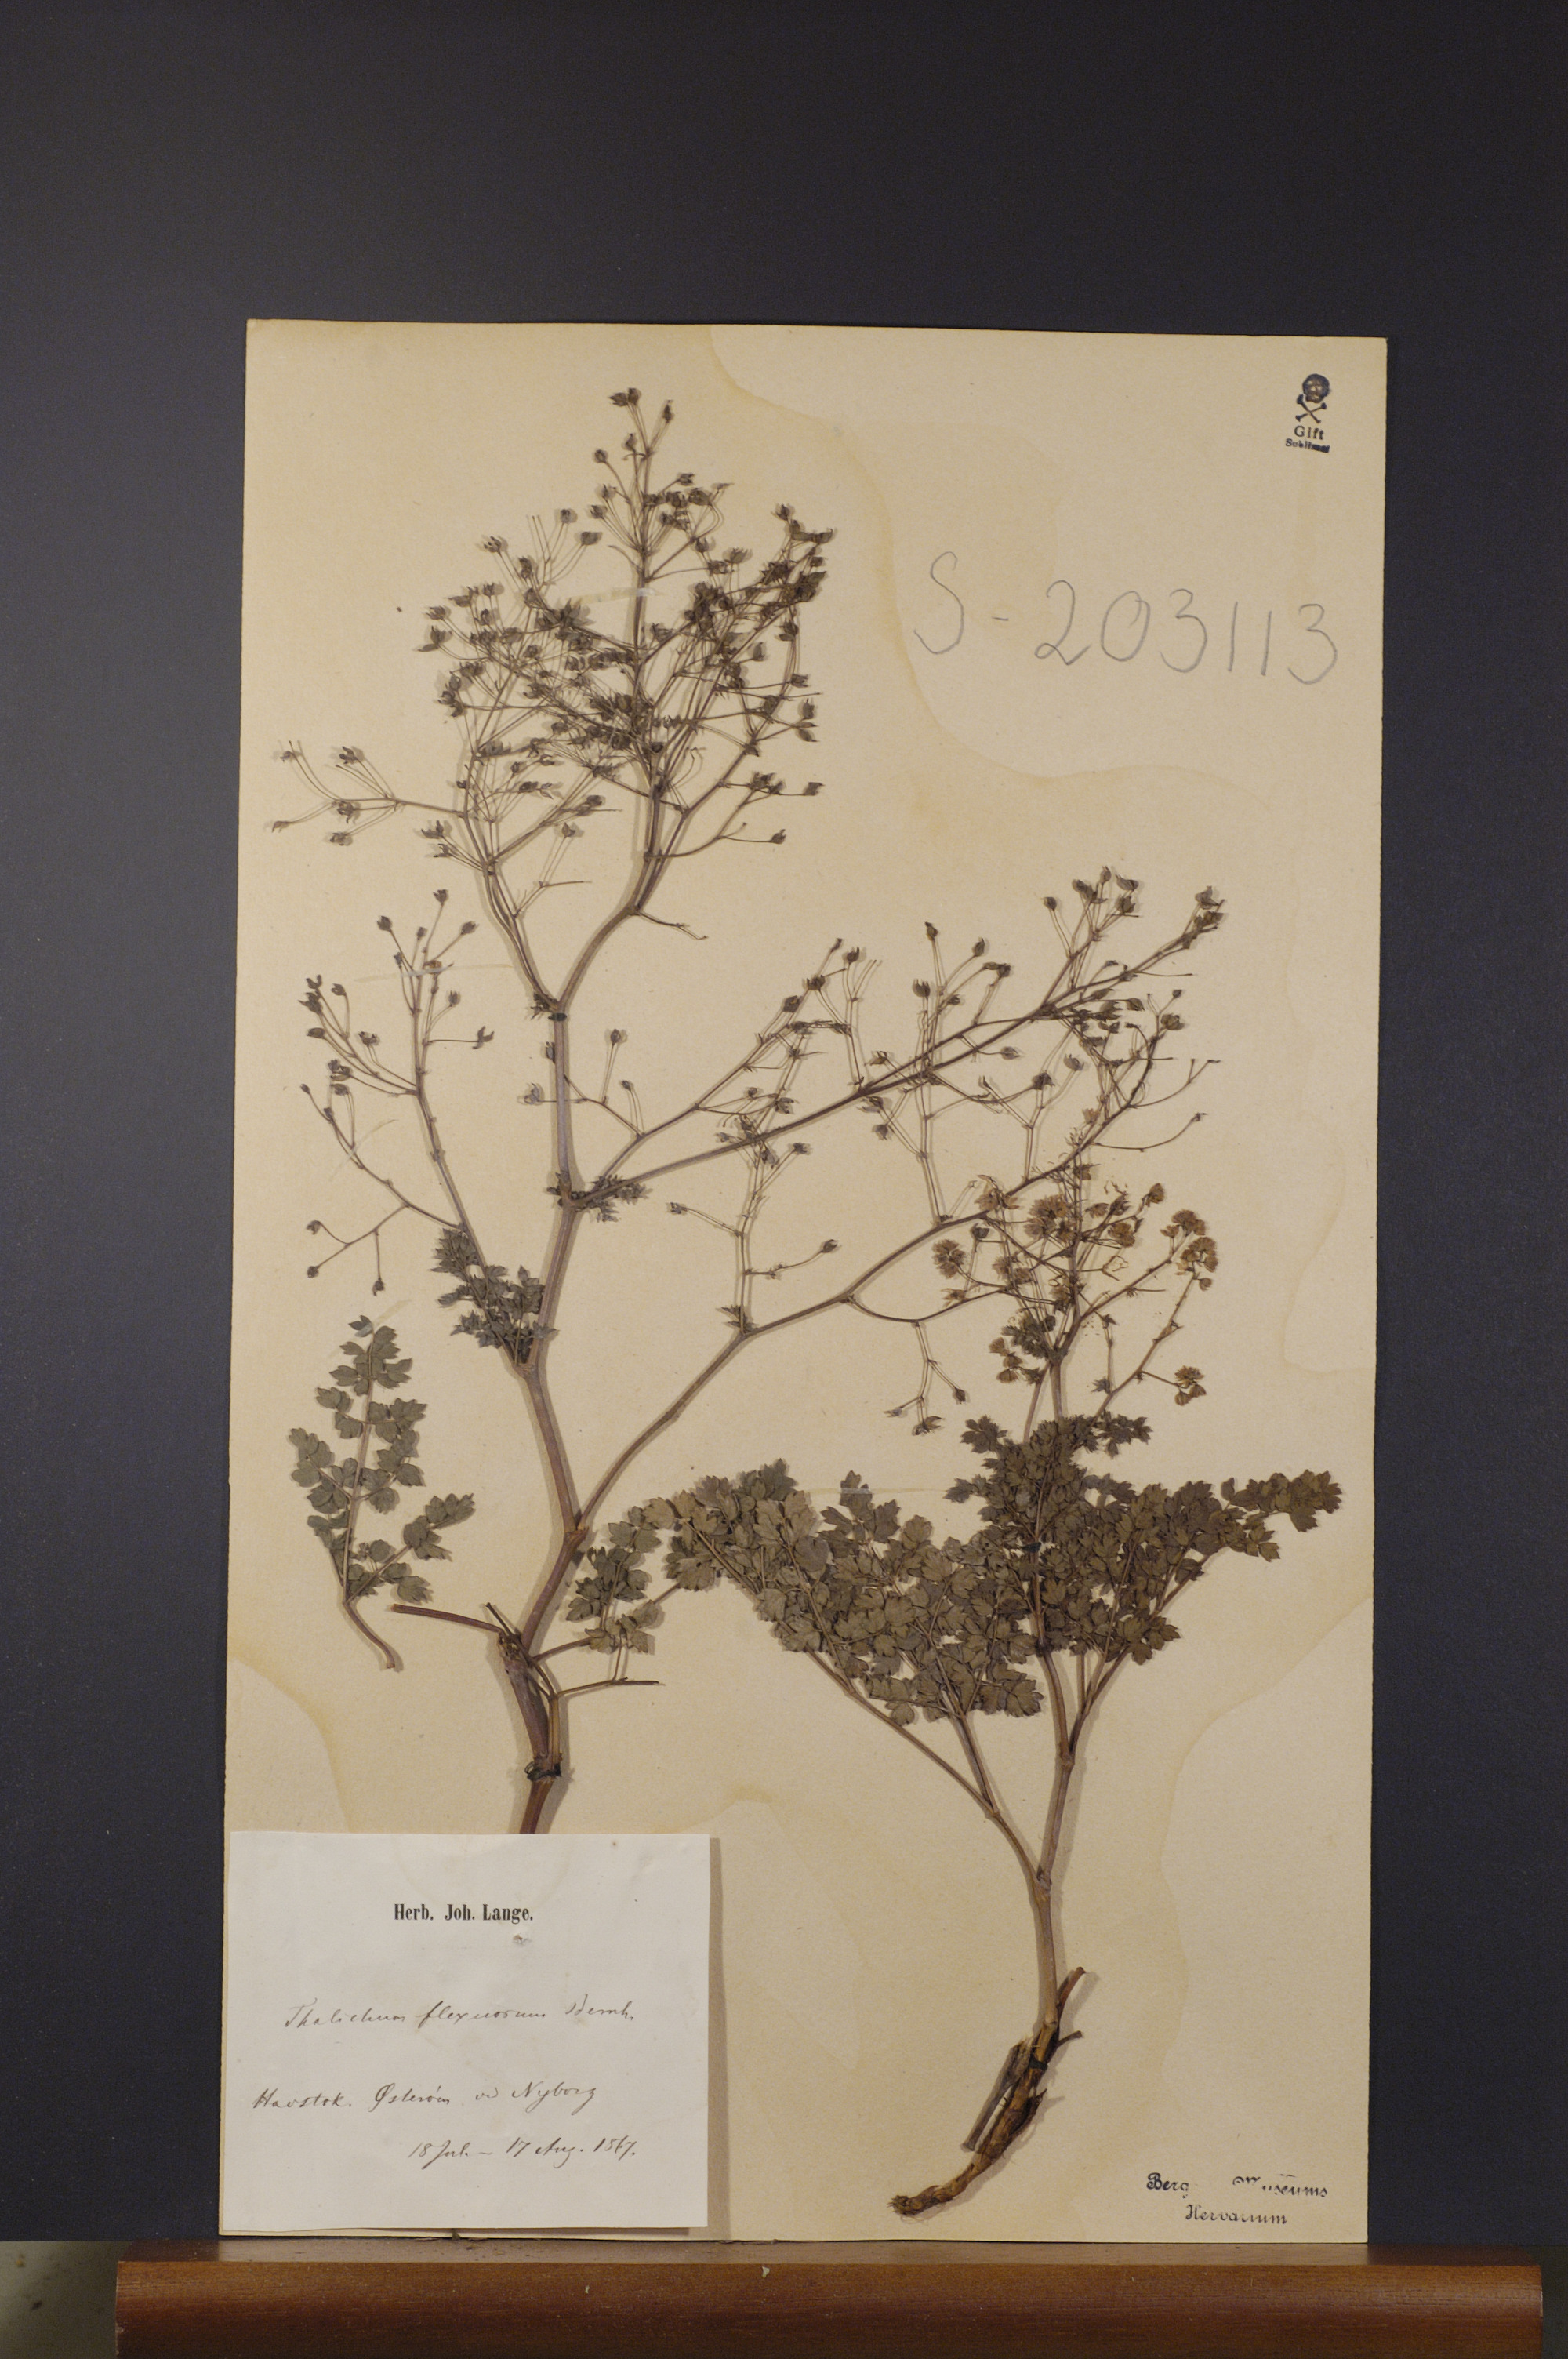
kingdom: Plantae
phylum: Tracheophyta
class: Magnoliopsida
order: Ranunculales
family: Ranunculaceae
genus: Thalictrum
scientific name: Thalictrum minus
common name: Lesser meadow-rue
